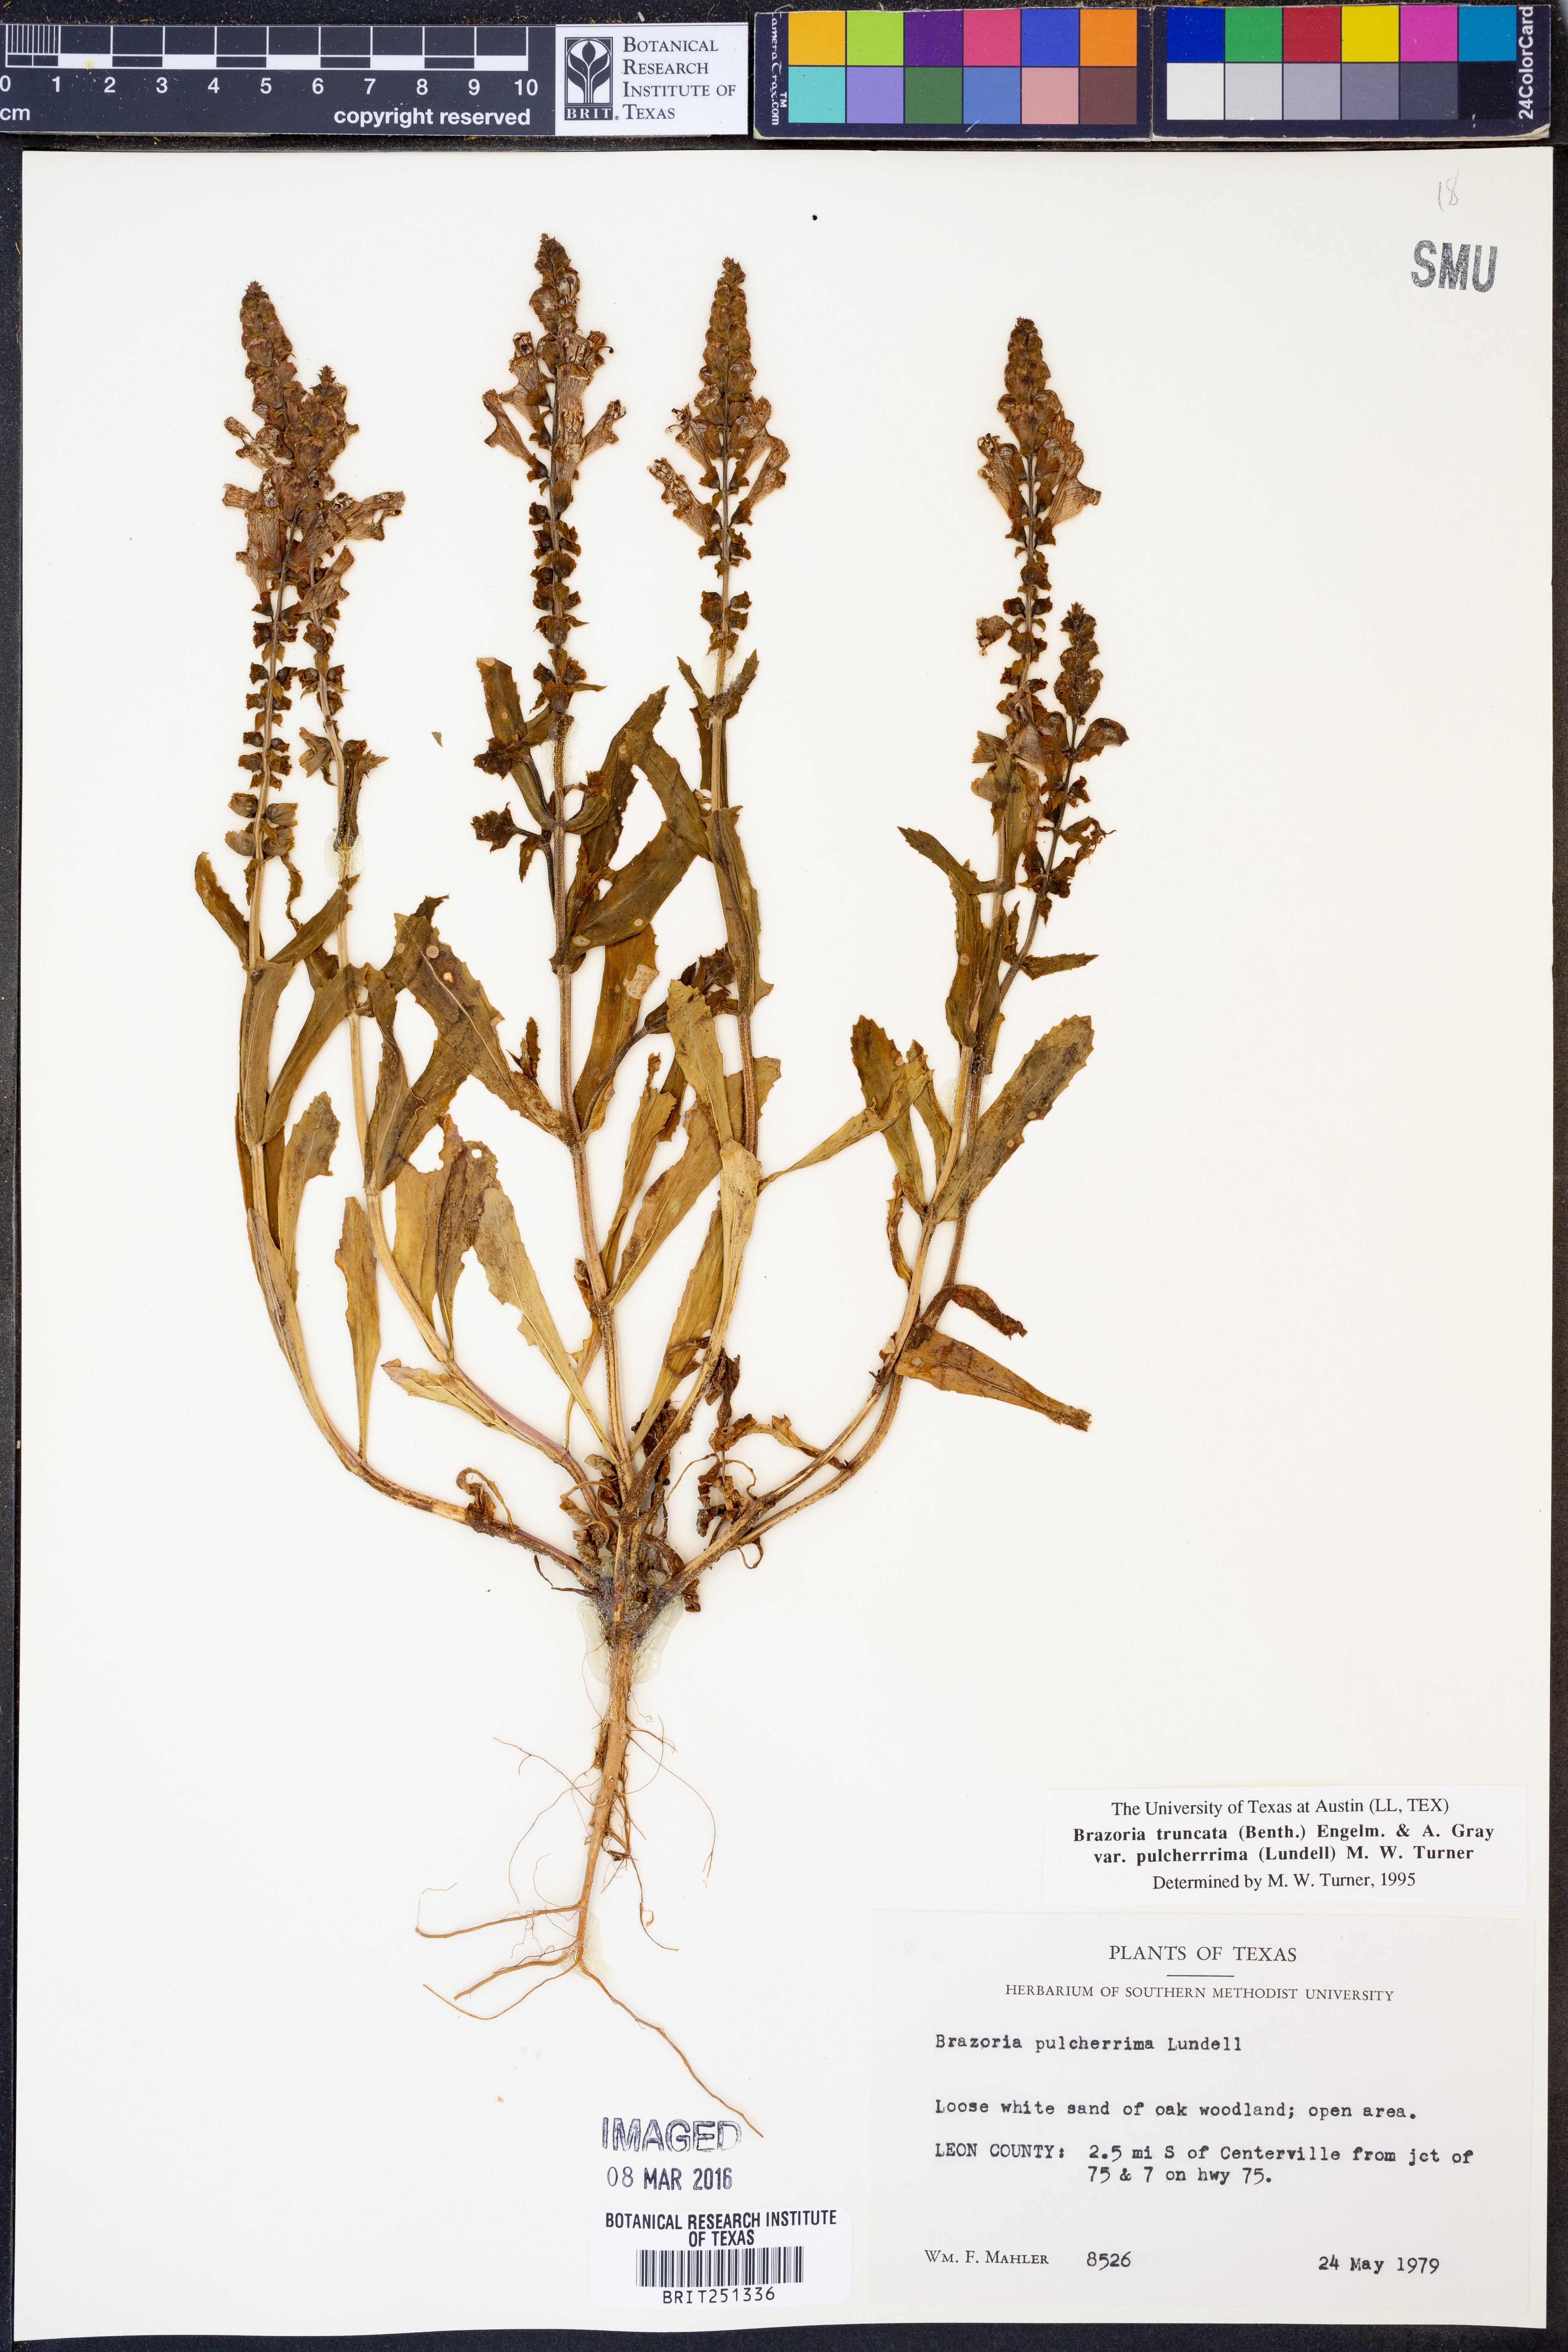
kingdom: Plantae
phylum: Tracheophyta
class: Magnoliopsida
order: Lamiales
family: Lamiaceae
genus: Brazoria
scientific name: Brazoria truncata
